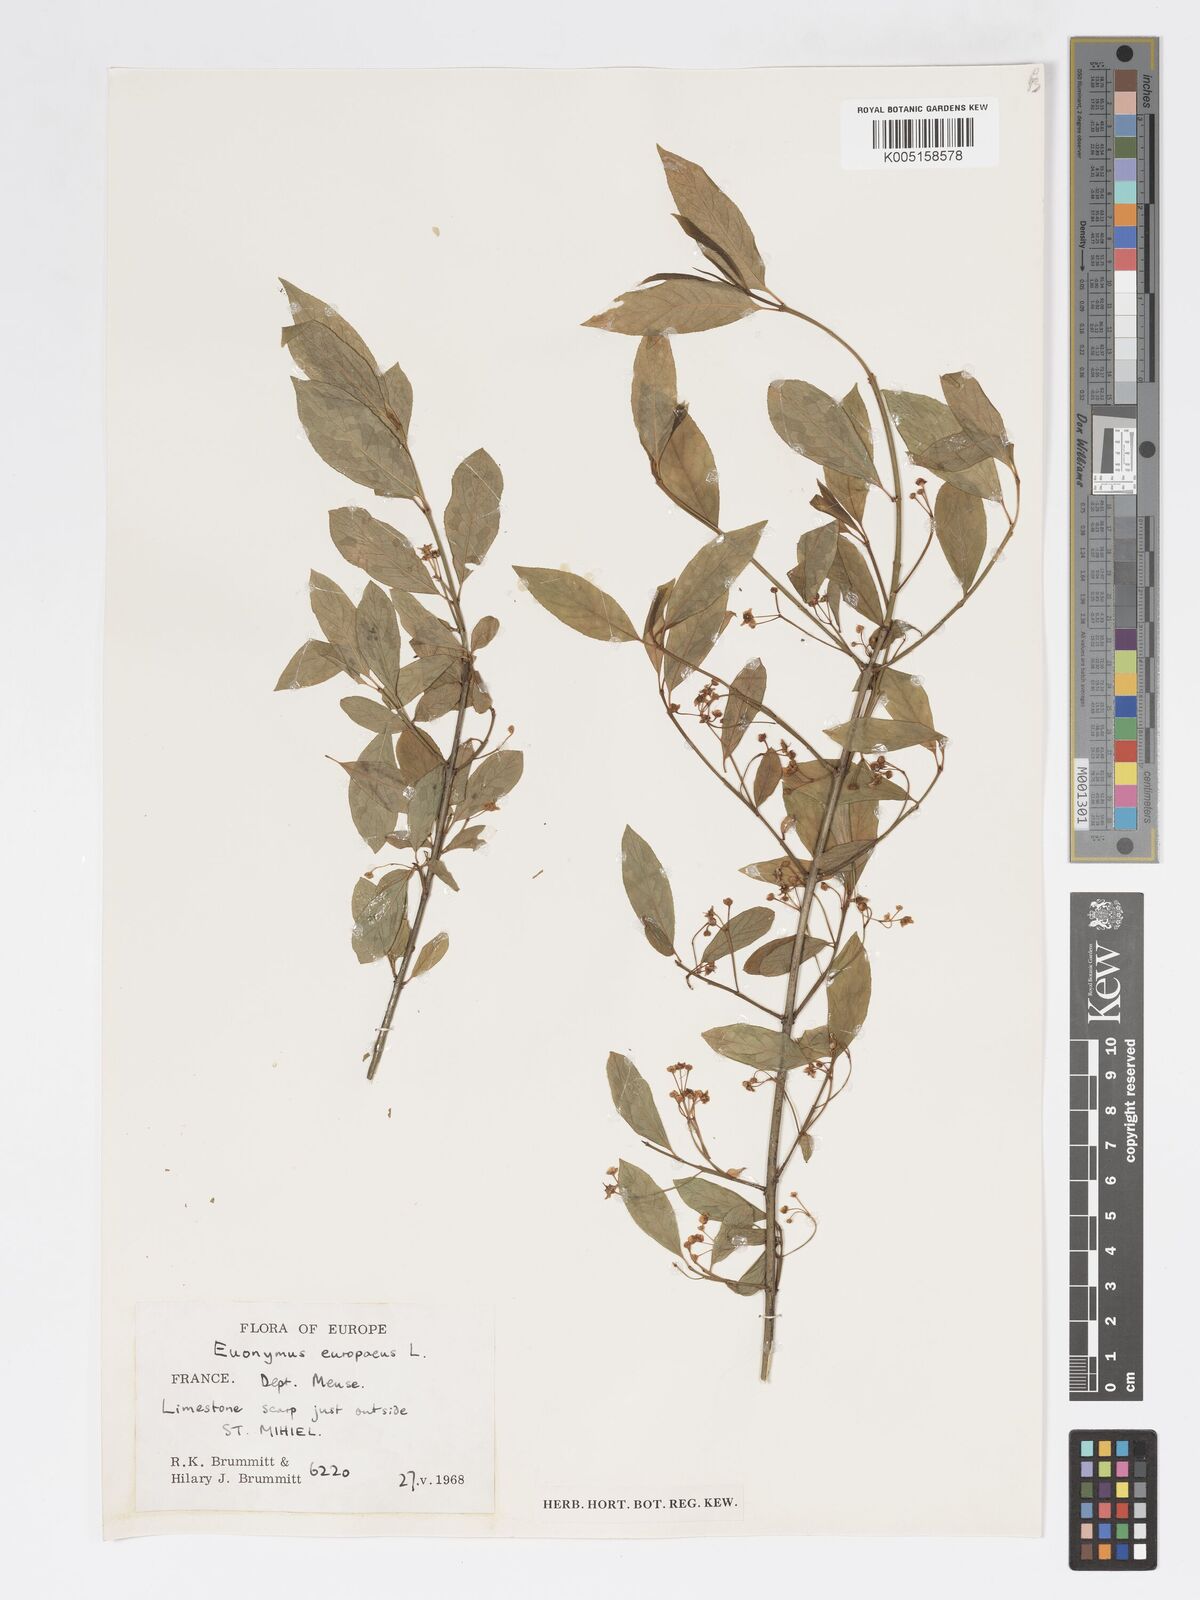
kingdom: Plantae
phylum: Tracheophyta
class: Magnoliopsida
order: Celastrales
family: Celastraceae
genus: Euonymus
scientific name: Euonymus europaeus
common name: Spindle
